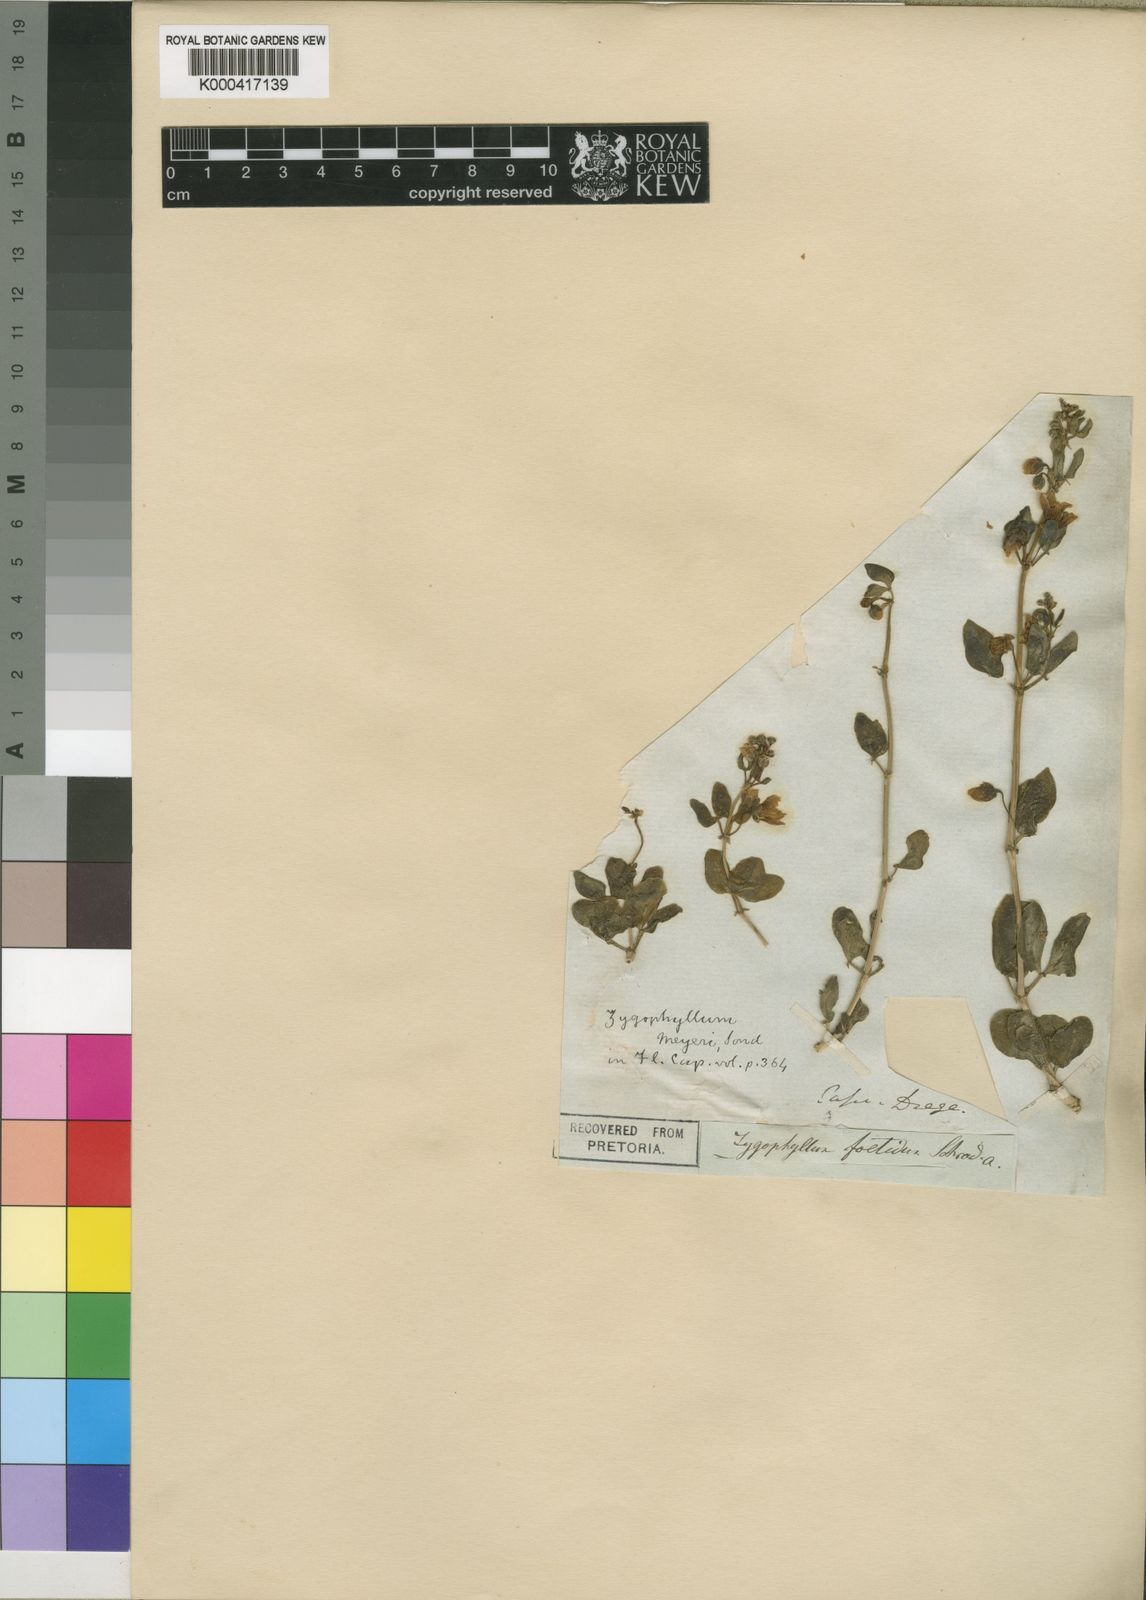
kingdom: Plantae
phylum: Tracheophyta
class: Magnoliopsida
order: Zygophyllales
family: Zygophyllaceae
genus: Roepera
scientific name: Roepera foetida
